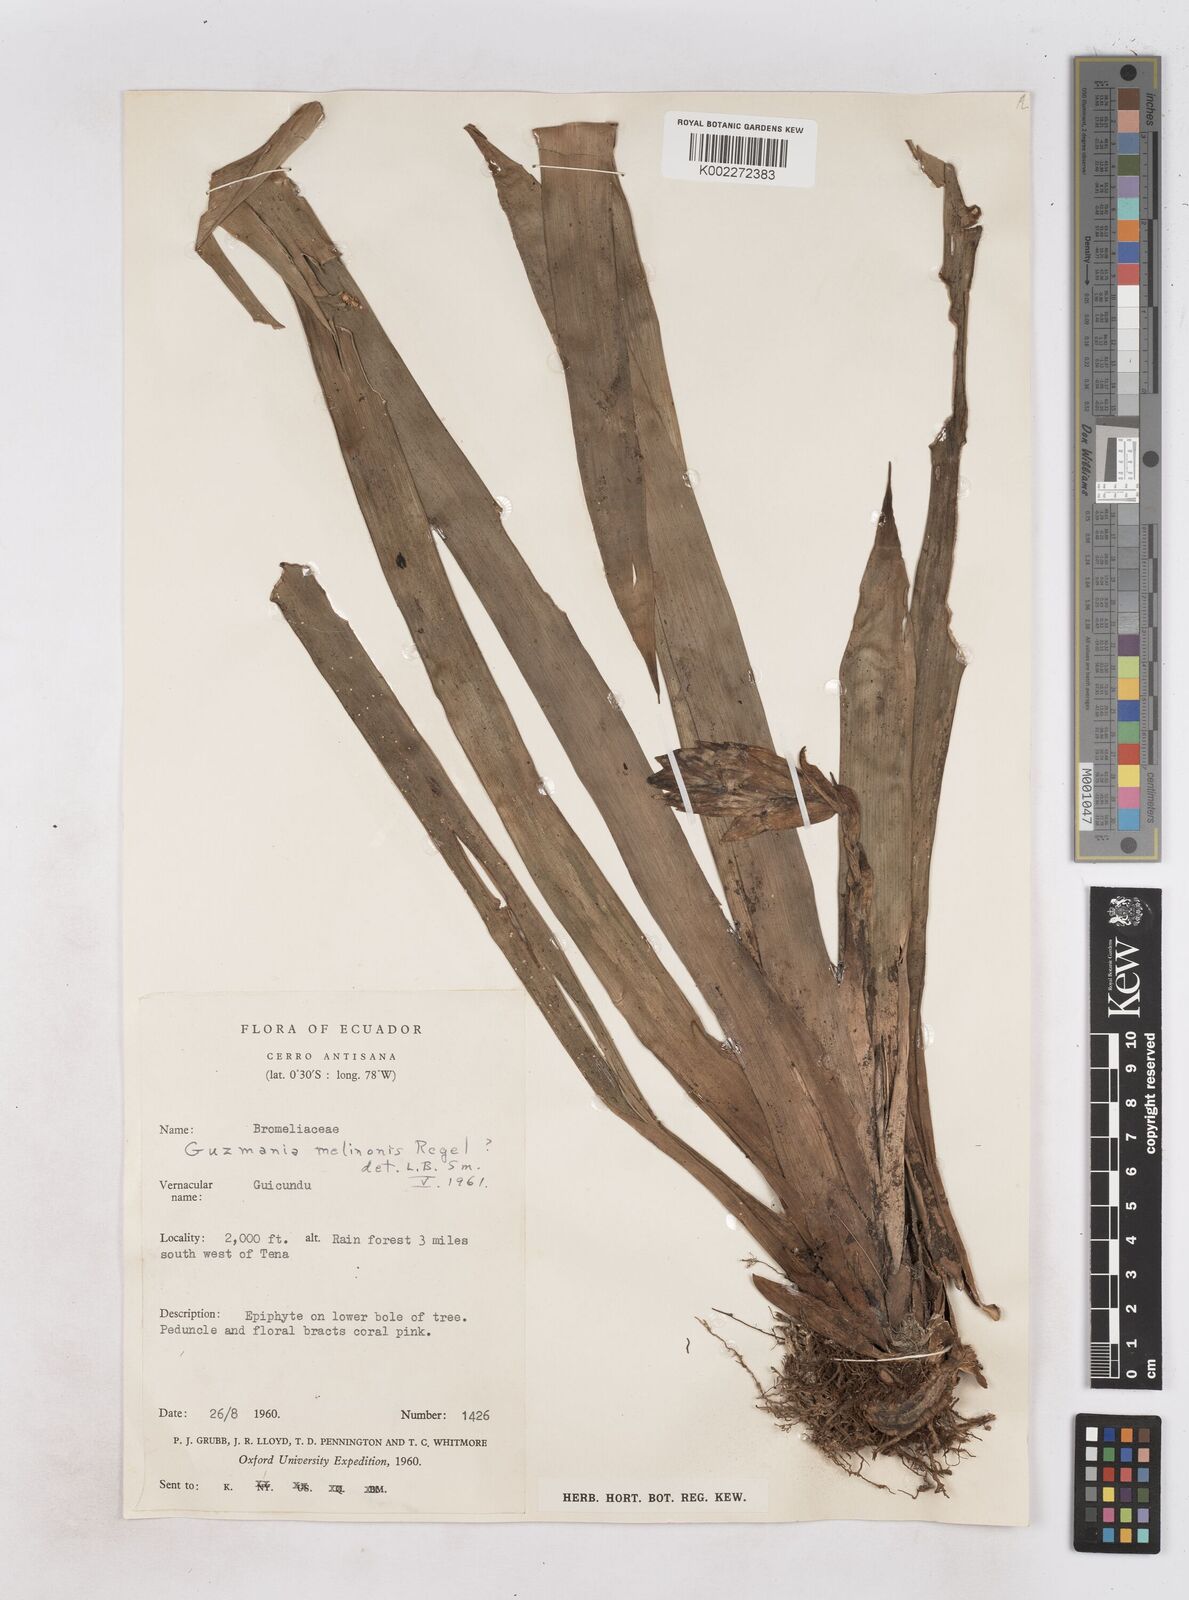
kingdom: Plantae
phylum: Tracheophyta
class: Liliopsida
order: Poales
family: Bromeliaceae
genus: Guzmania
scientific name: Guzmania melinonis
